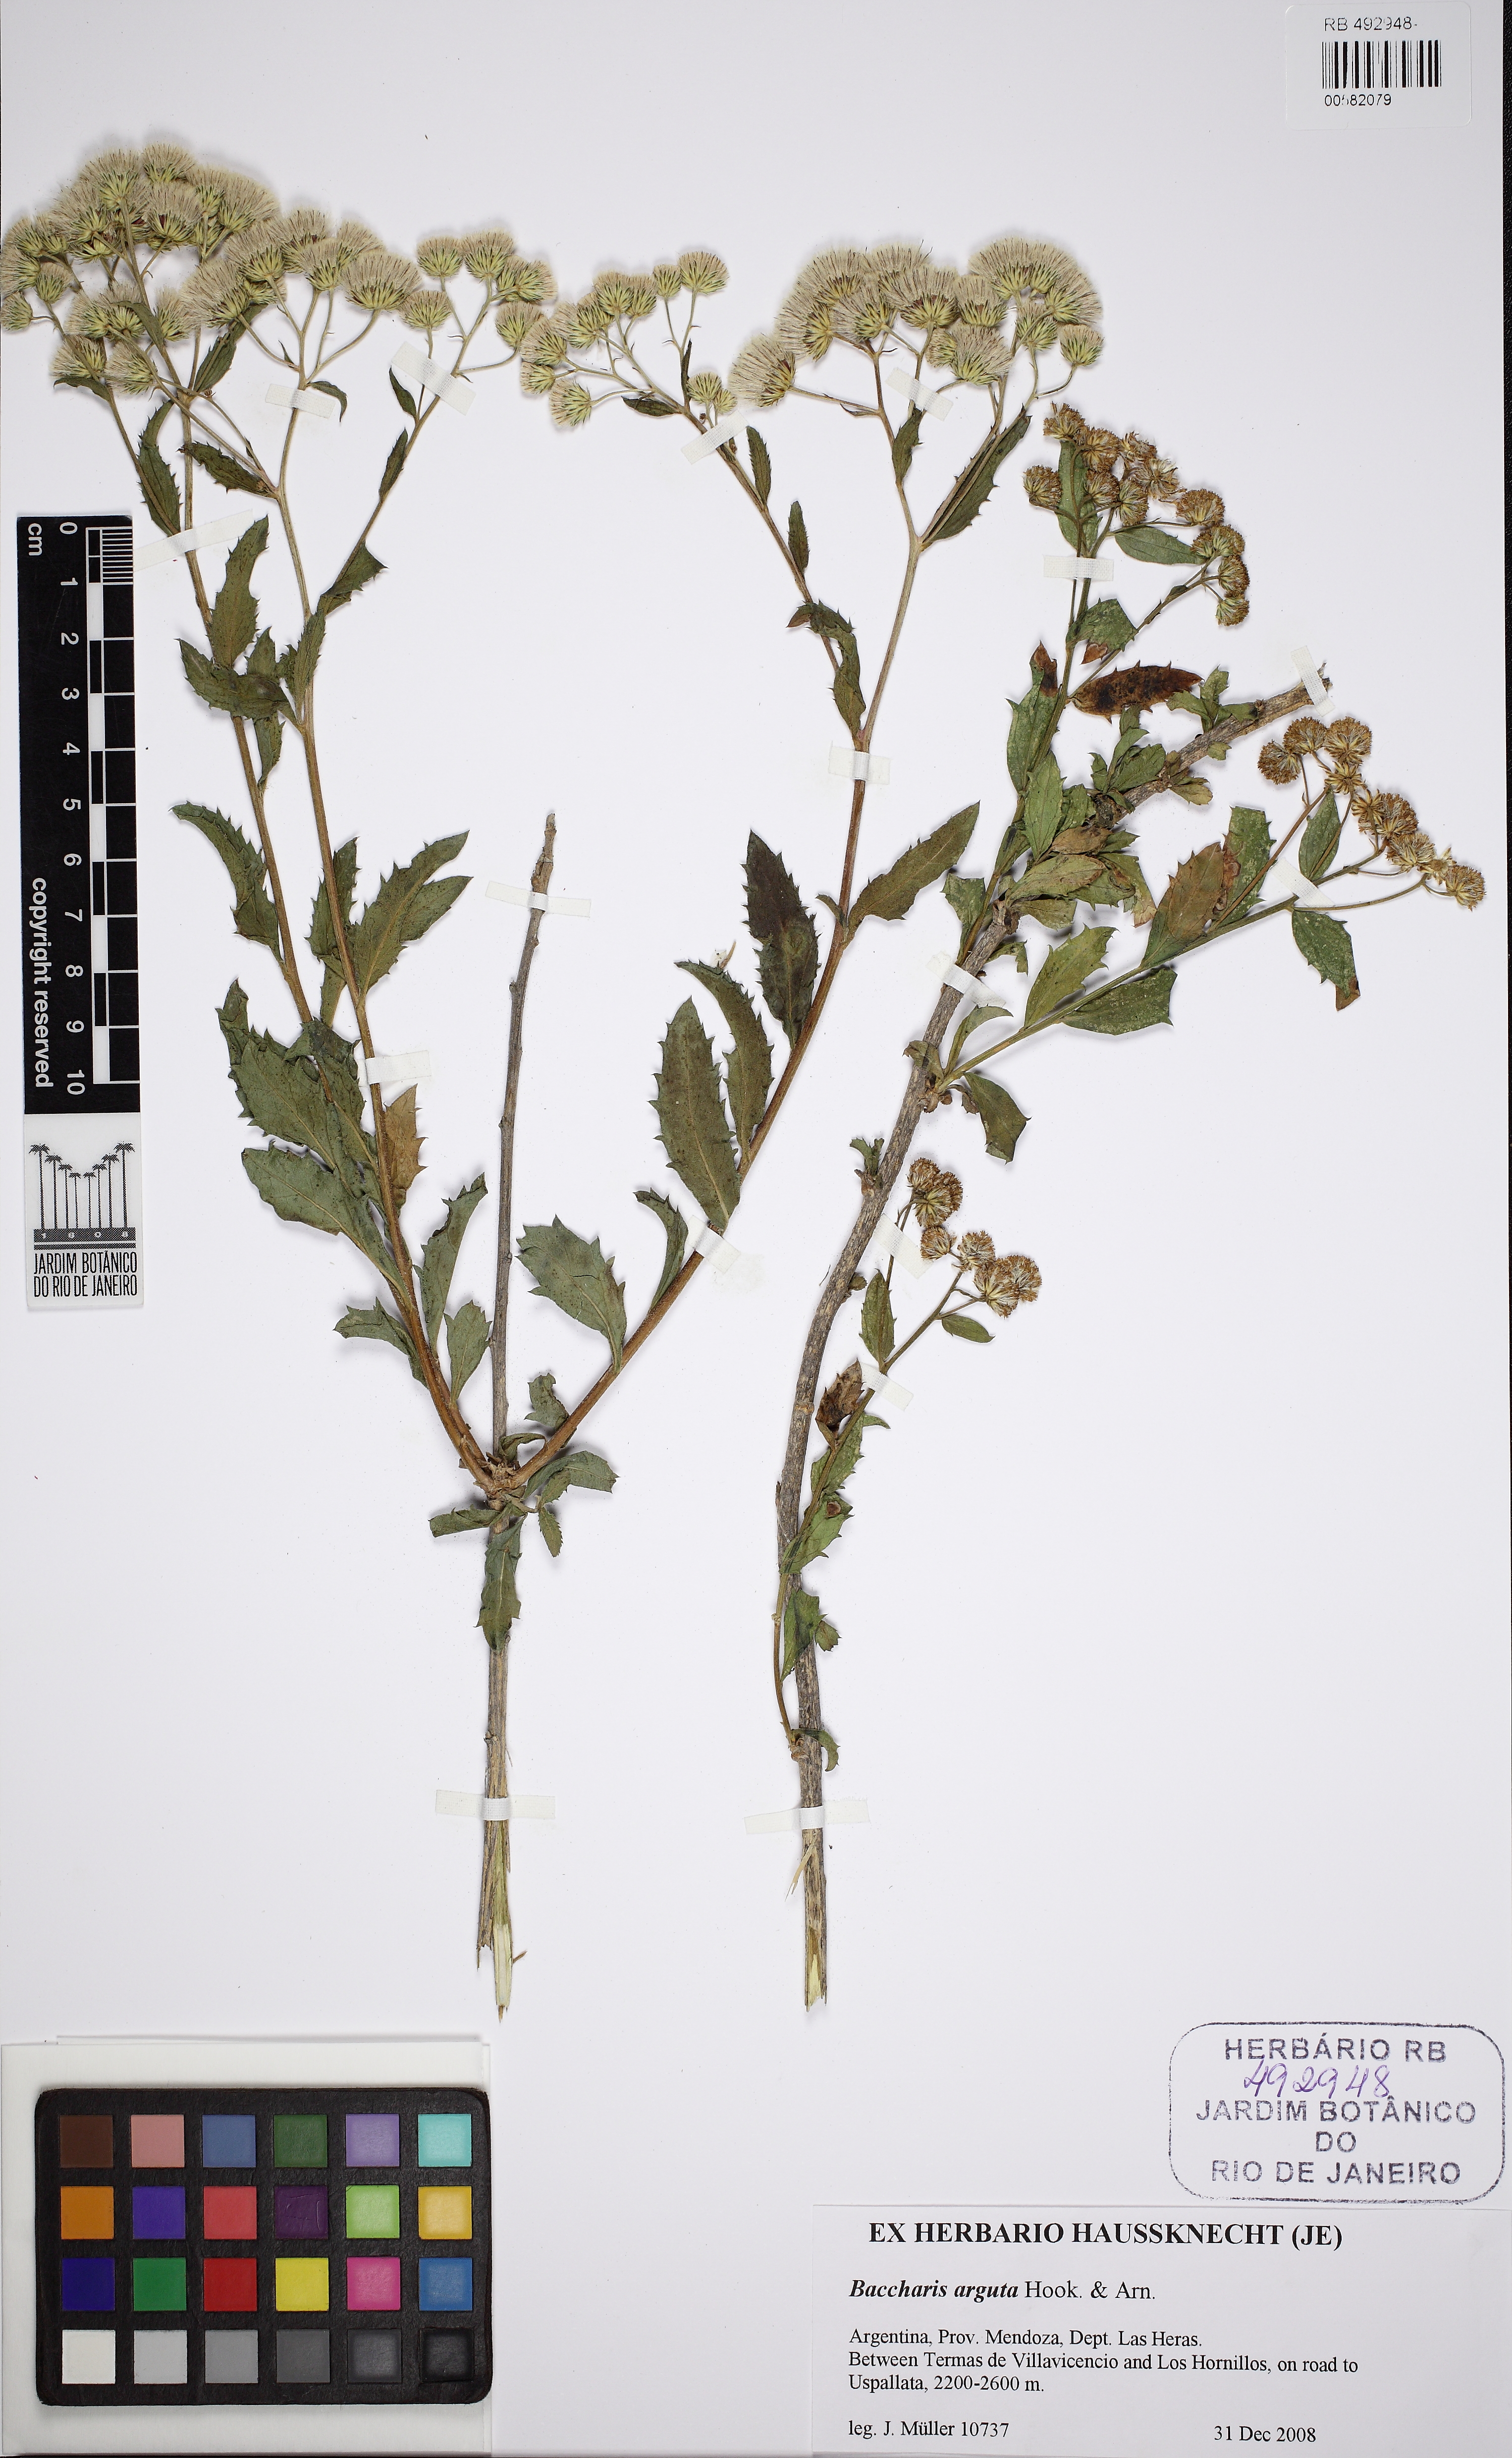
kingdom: Plantae
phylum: Tracheophyta
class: Magnoliopsida
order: Asterales
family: Asteraceae
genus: Baccharis
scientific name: Baccharis racemosa
